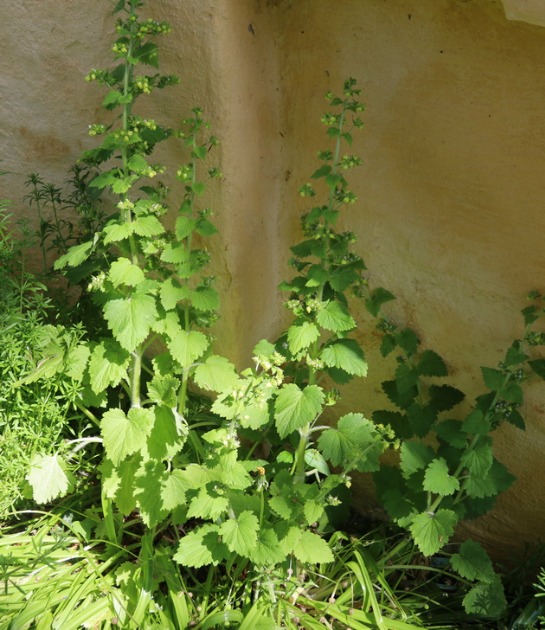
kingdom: Plantae
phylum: Tracheophyta
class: Magnoliopsida
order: Lamiales
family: Scrophulariaceae
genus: Scrophularia
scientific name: Scrophularia vernalis
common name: Vår-brunrod
